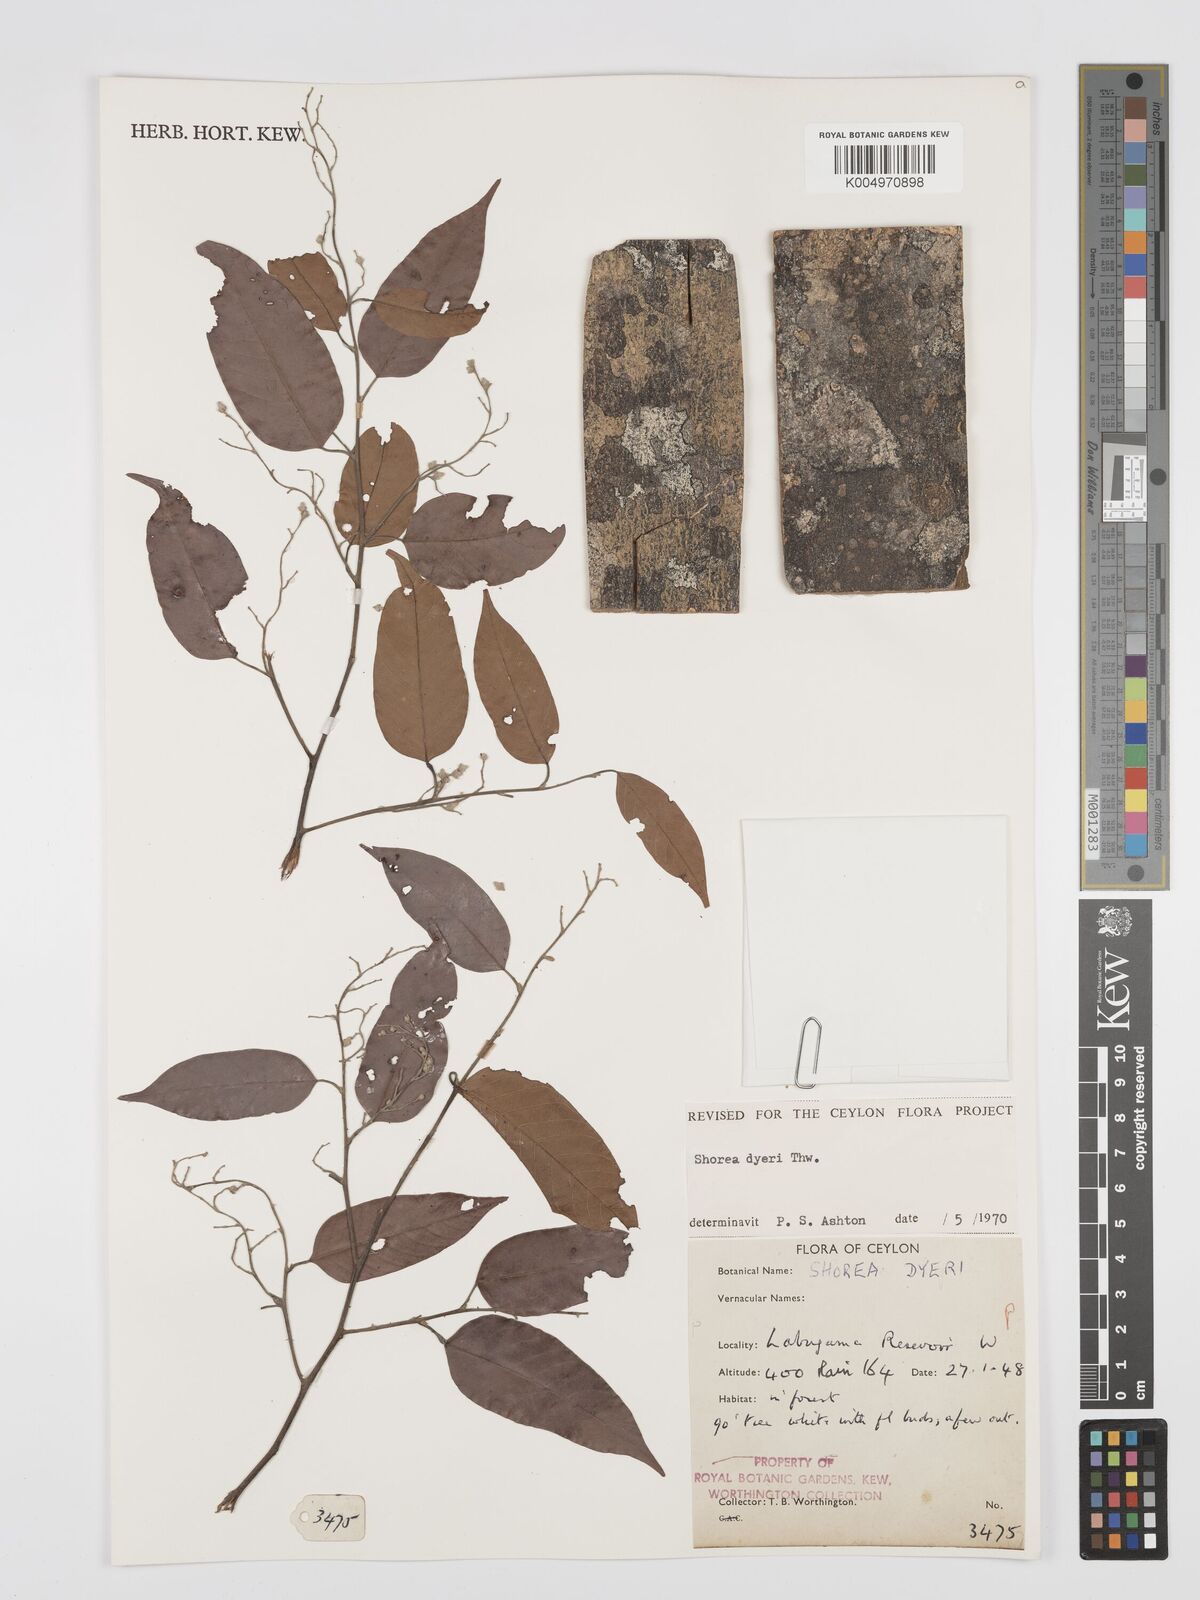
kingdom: Plantae
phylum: Tracheophyta
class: Magnoliopsida
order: Malvales
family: Dipterocarpaceae
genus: Shorea
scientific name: Shorea dyeri
